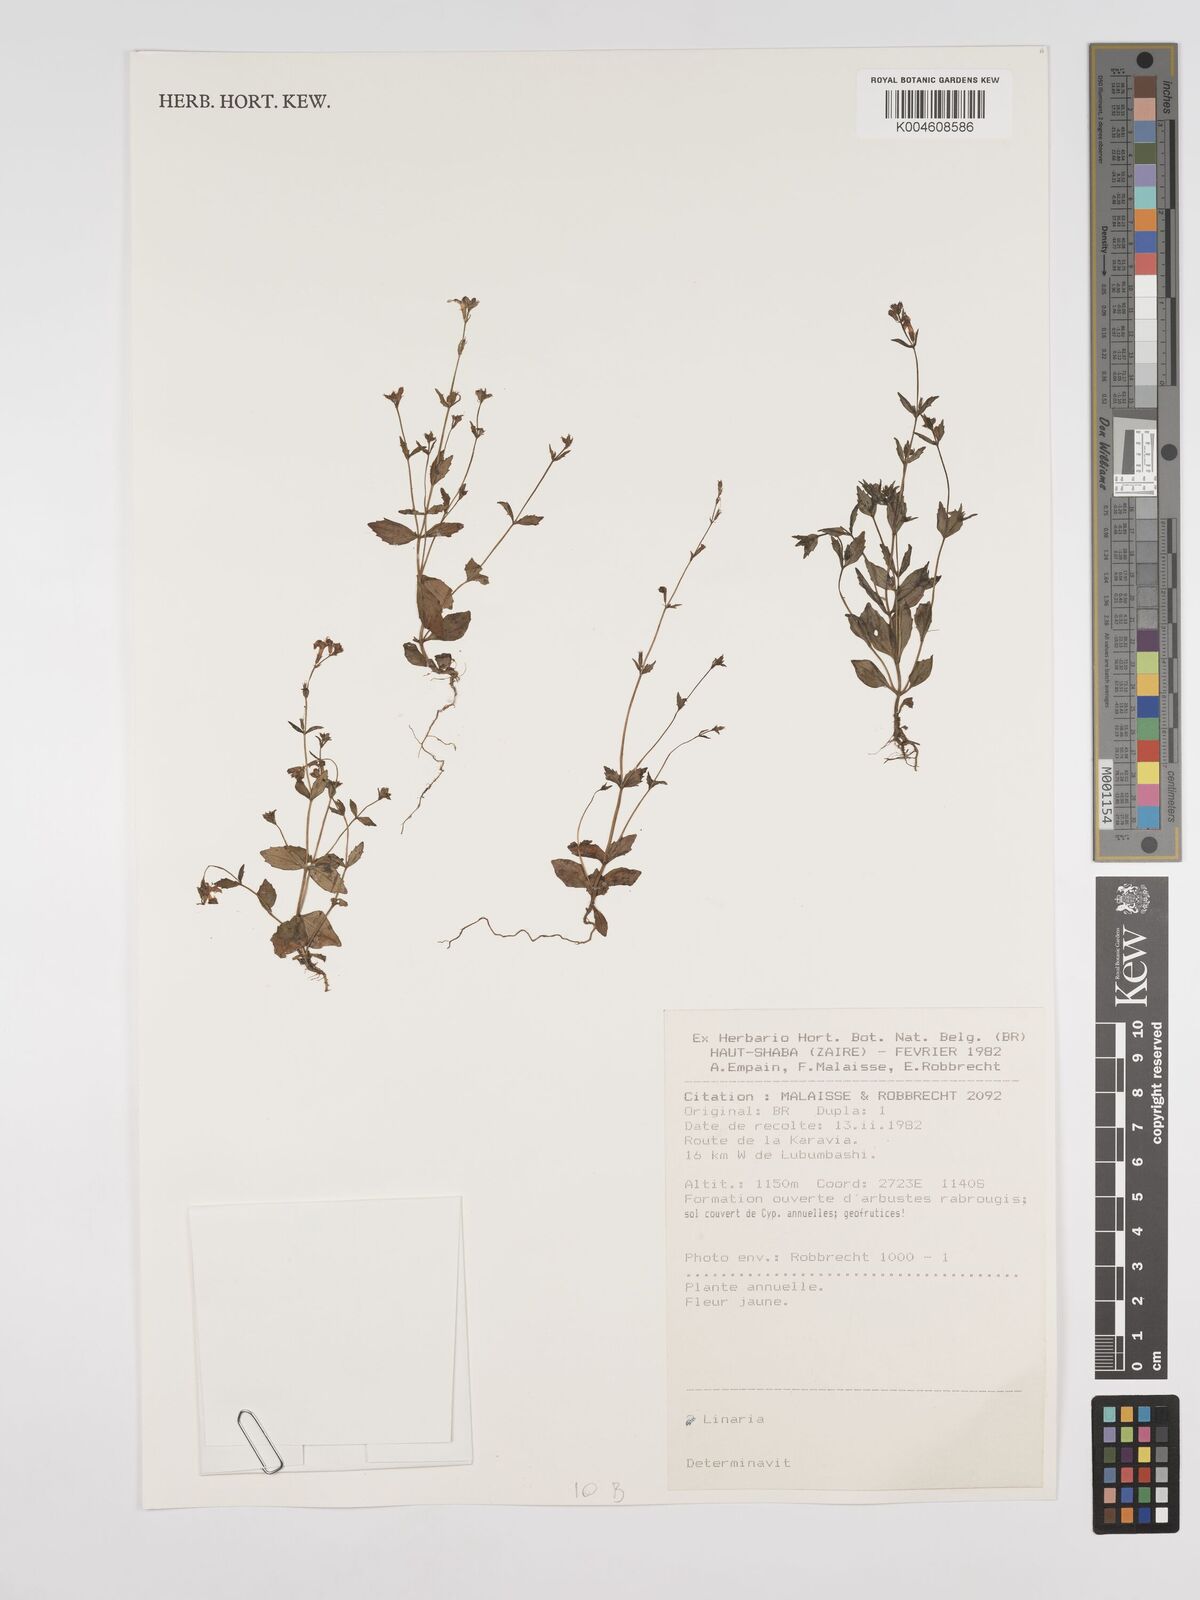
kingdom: Plantae
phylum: Tracheophyta
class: Magnoliopsida
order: Lamiales
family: Plantaginaceae
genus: Kickxia
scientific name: Kickxia
